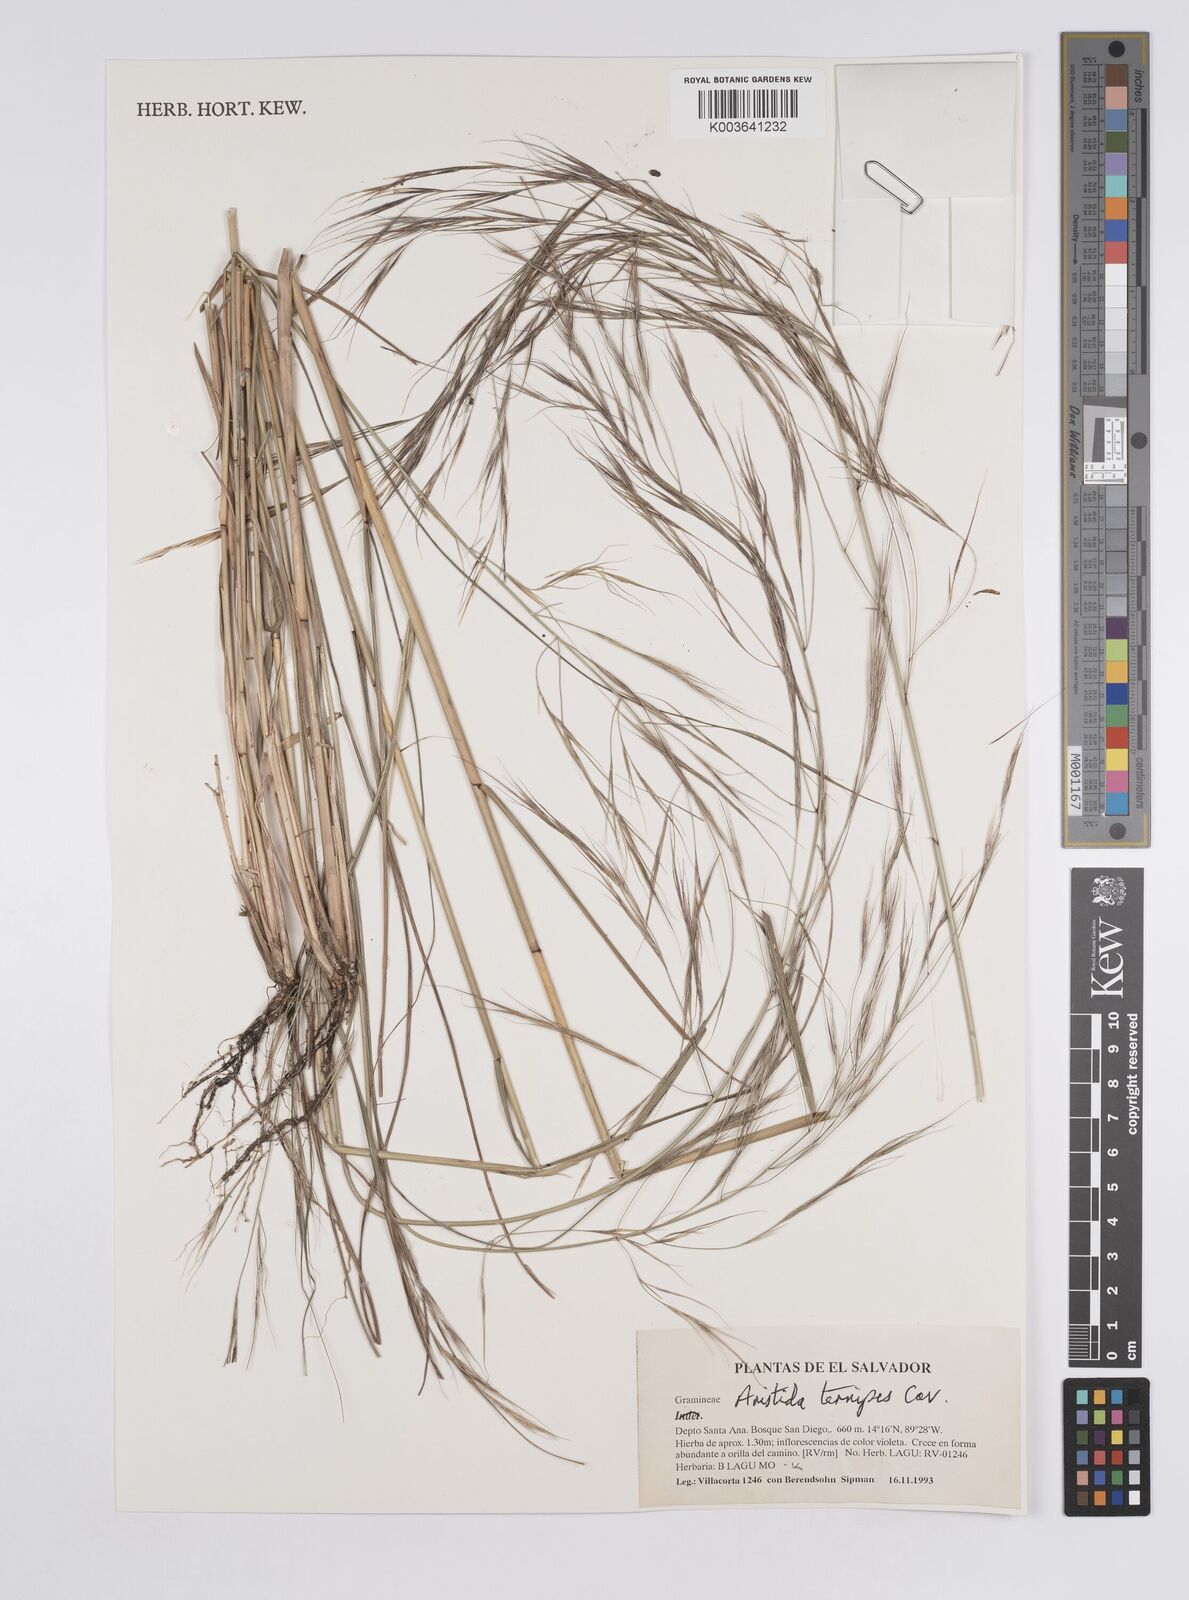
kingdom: Plantae
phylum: Tracheophyta
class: Liliopsida
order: Poales
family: Poaceae
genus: Aristida
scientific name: Aristida
